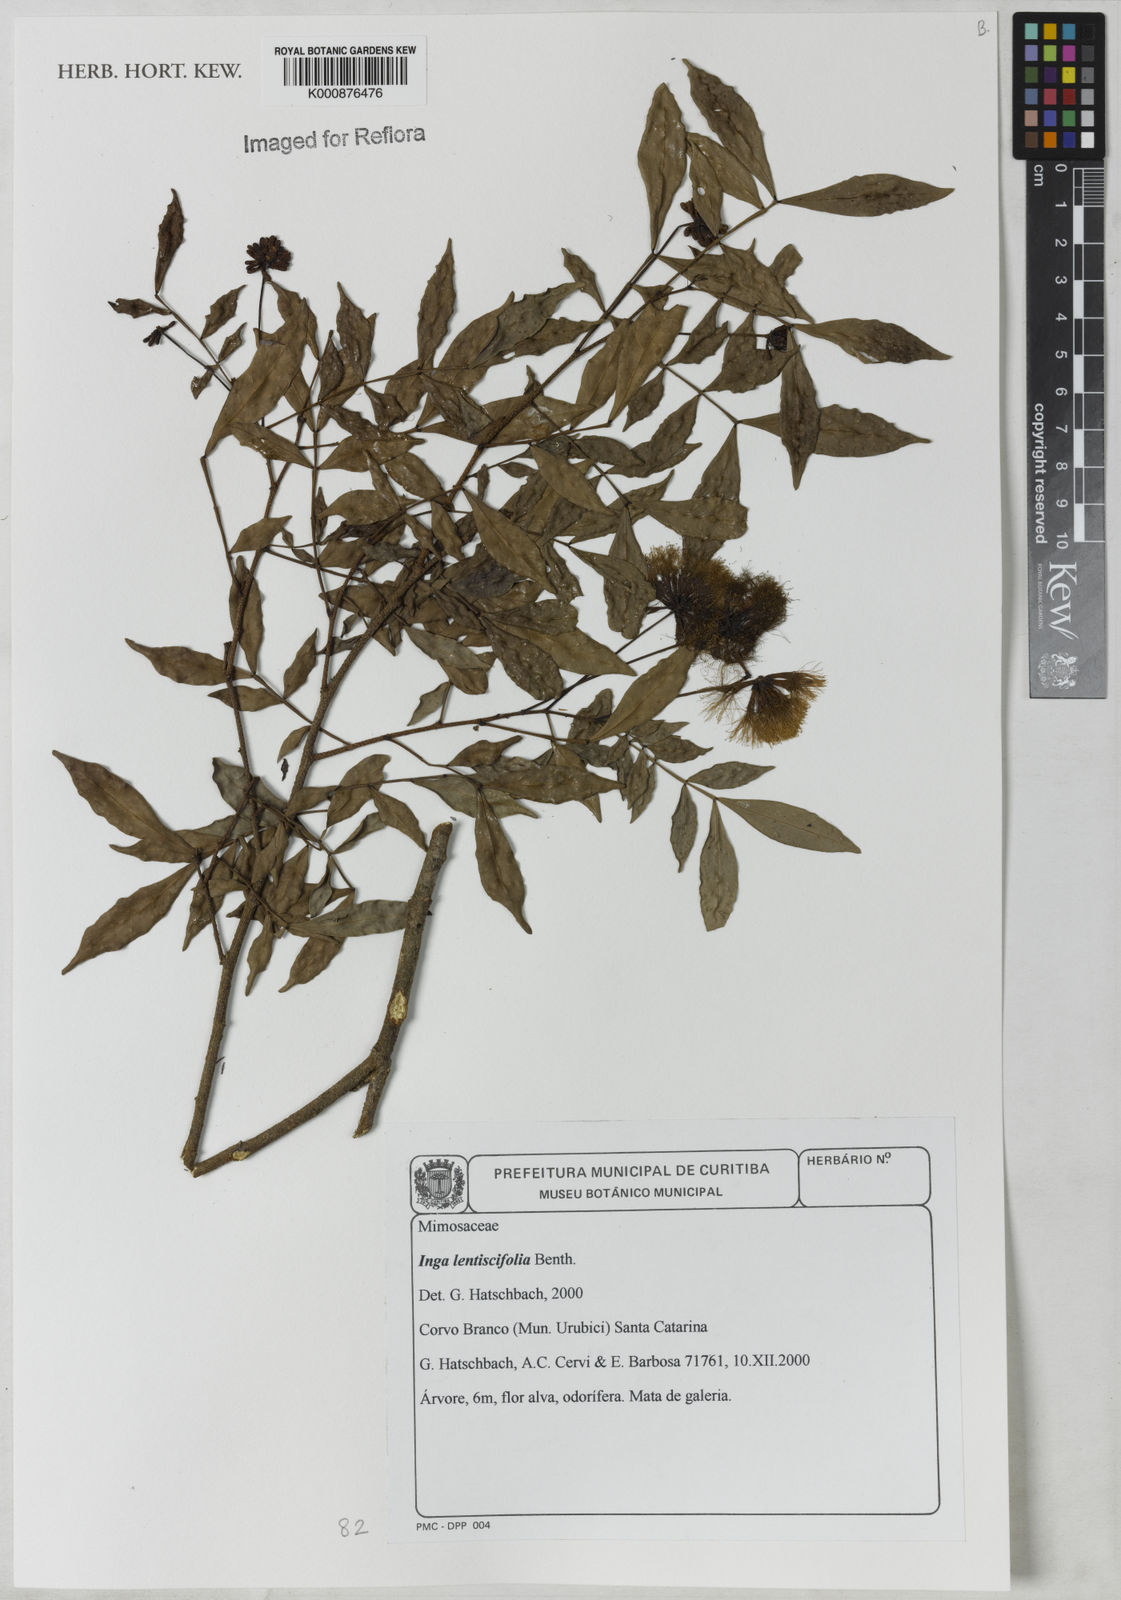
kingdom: Plantae
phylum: Tracheophyta
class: Magnoliopsida
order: Fabales
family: Fabaceae
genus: Inga
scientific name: Inga lentiscifolia
